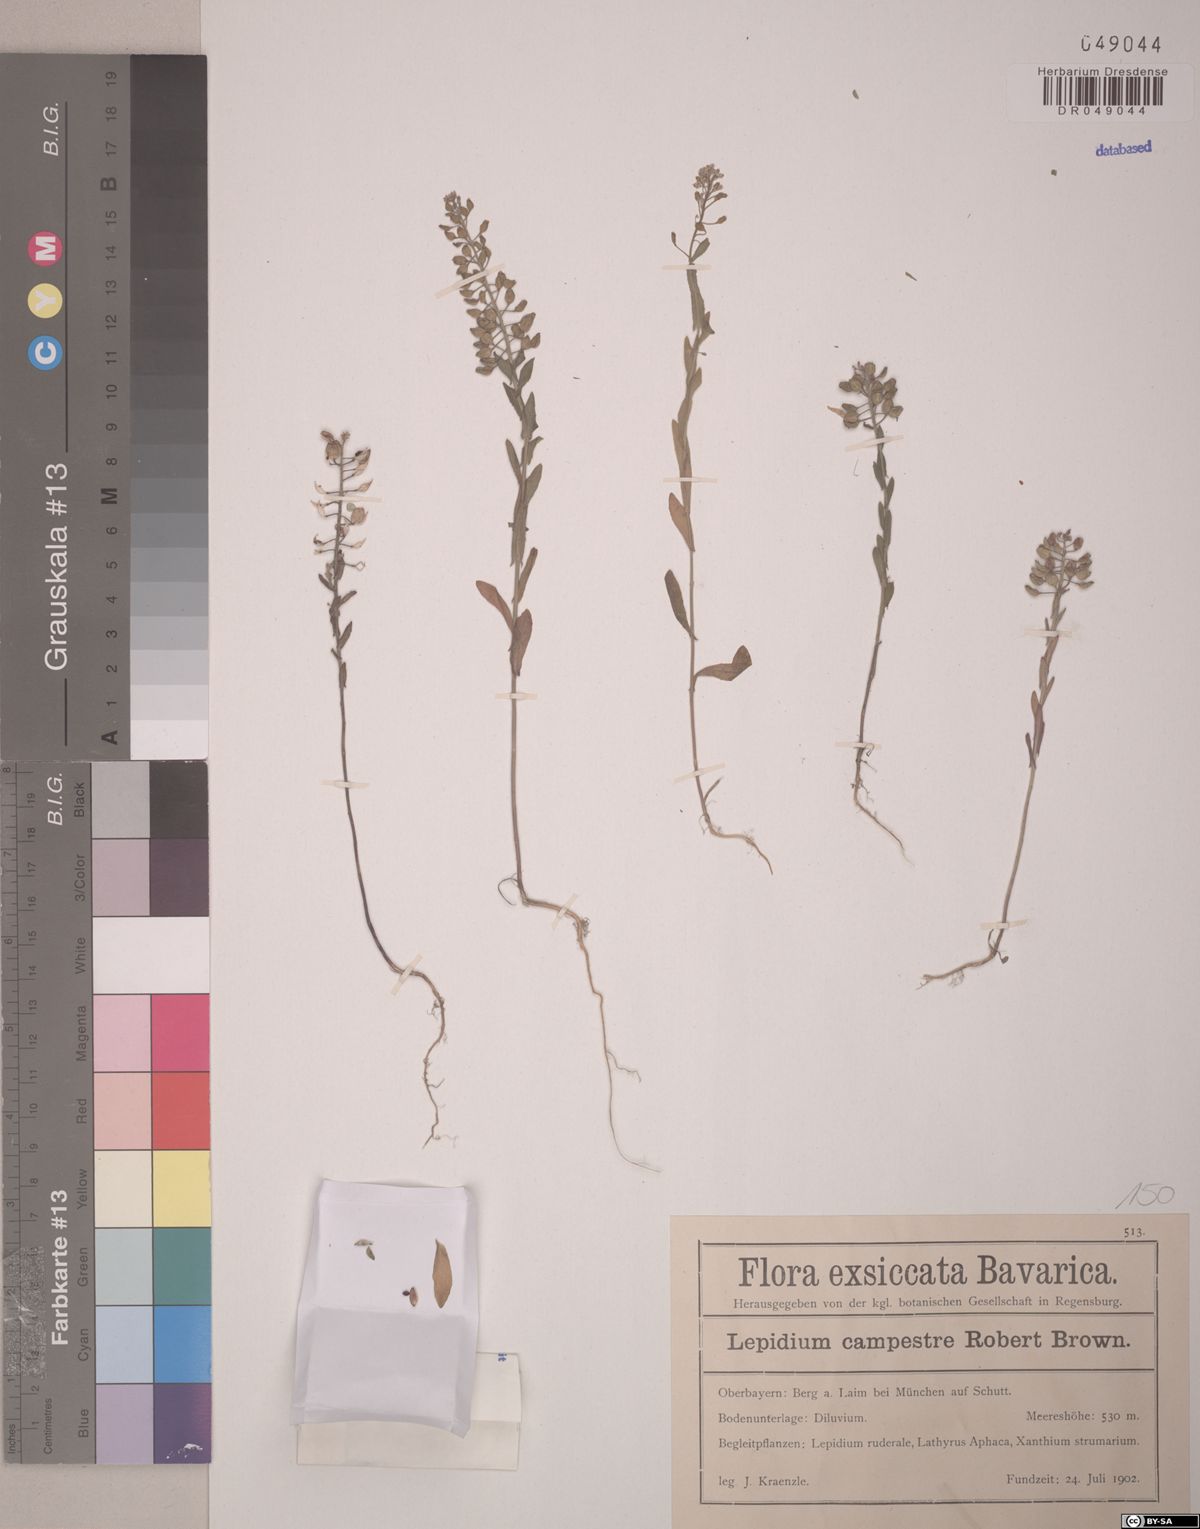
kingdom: Plantae
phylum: Tracheophyta
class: Magnoliopsida
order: Brassicales
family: Brassicaceae
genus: Lepidium
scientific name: Lepidium campestre
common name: Field pepperwort
